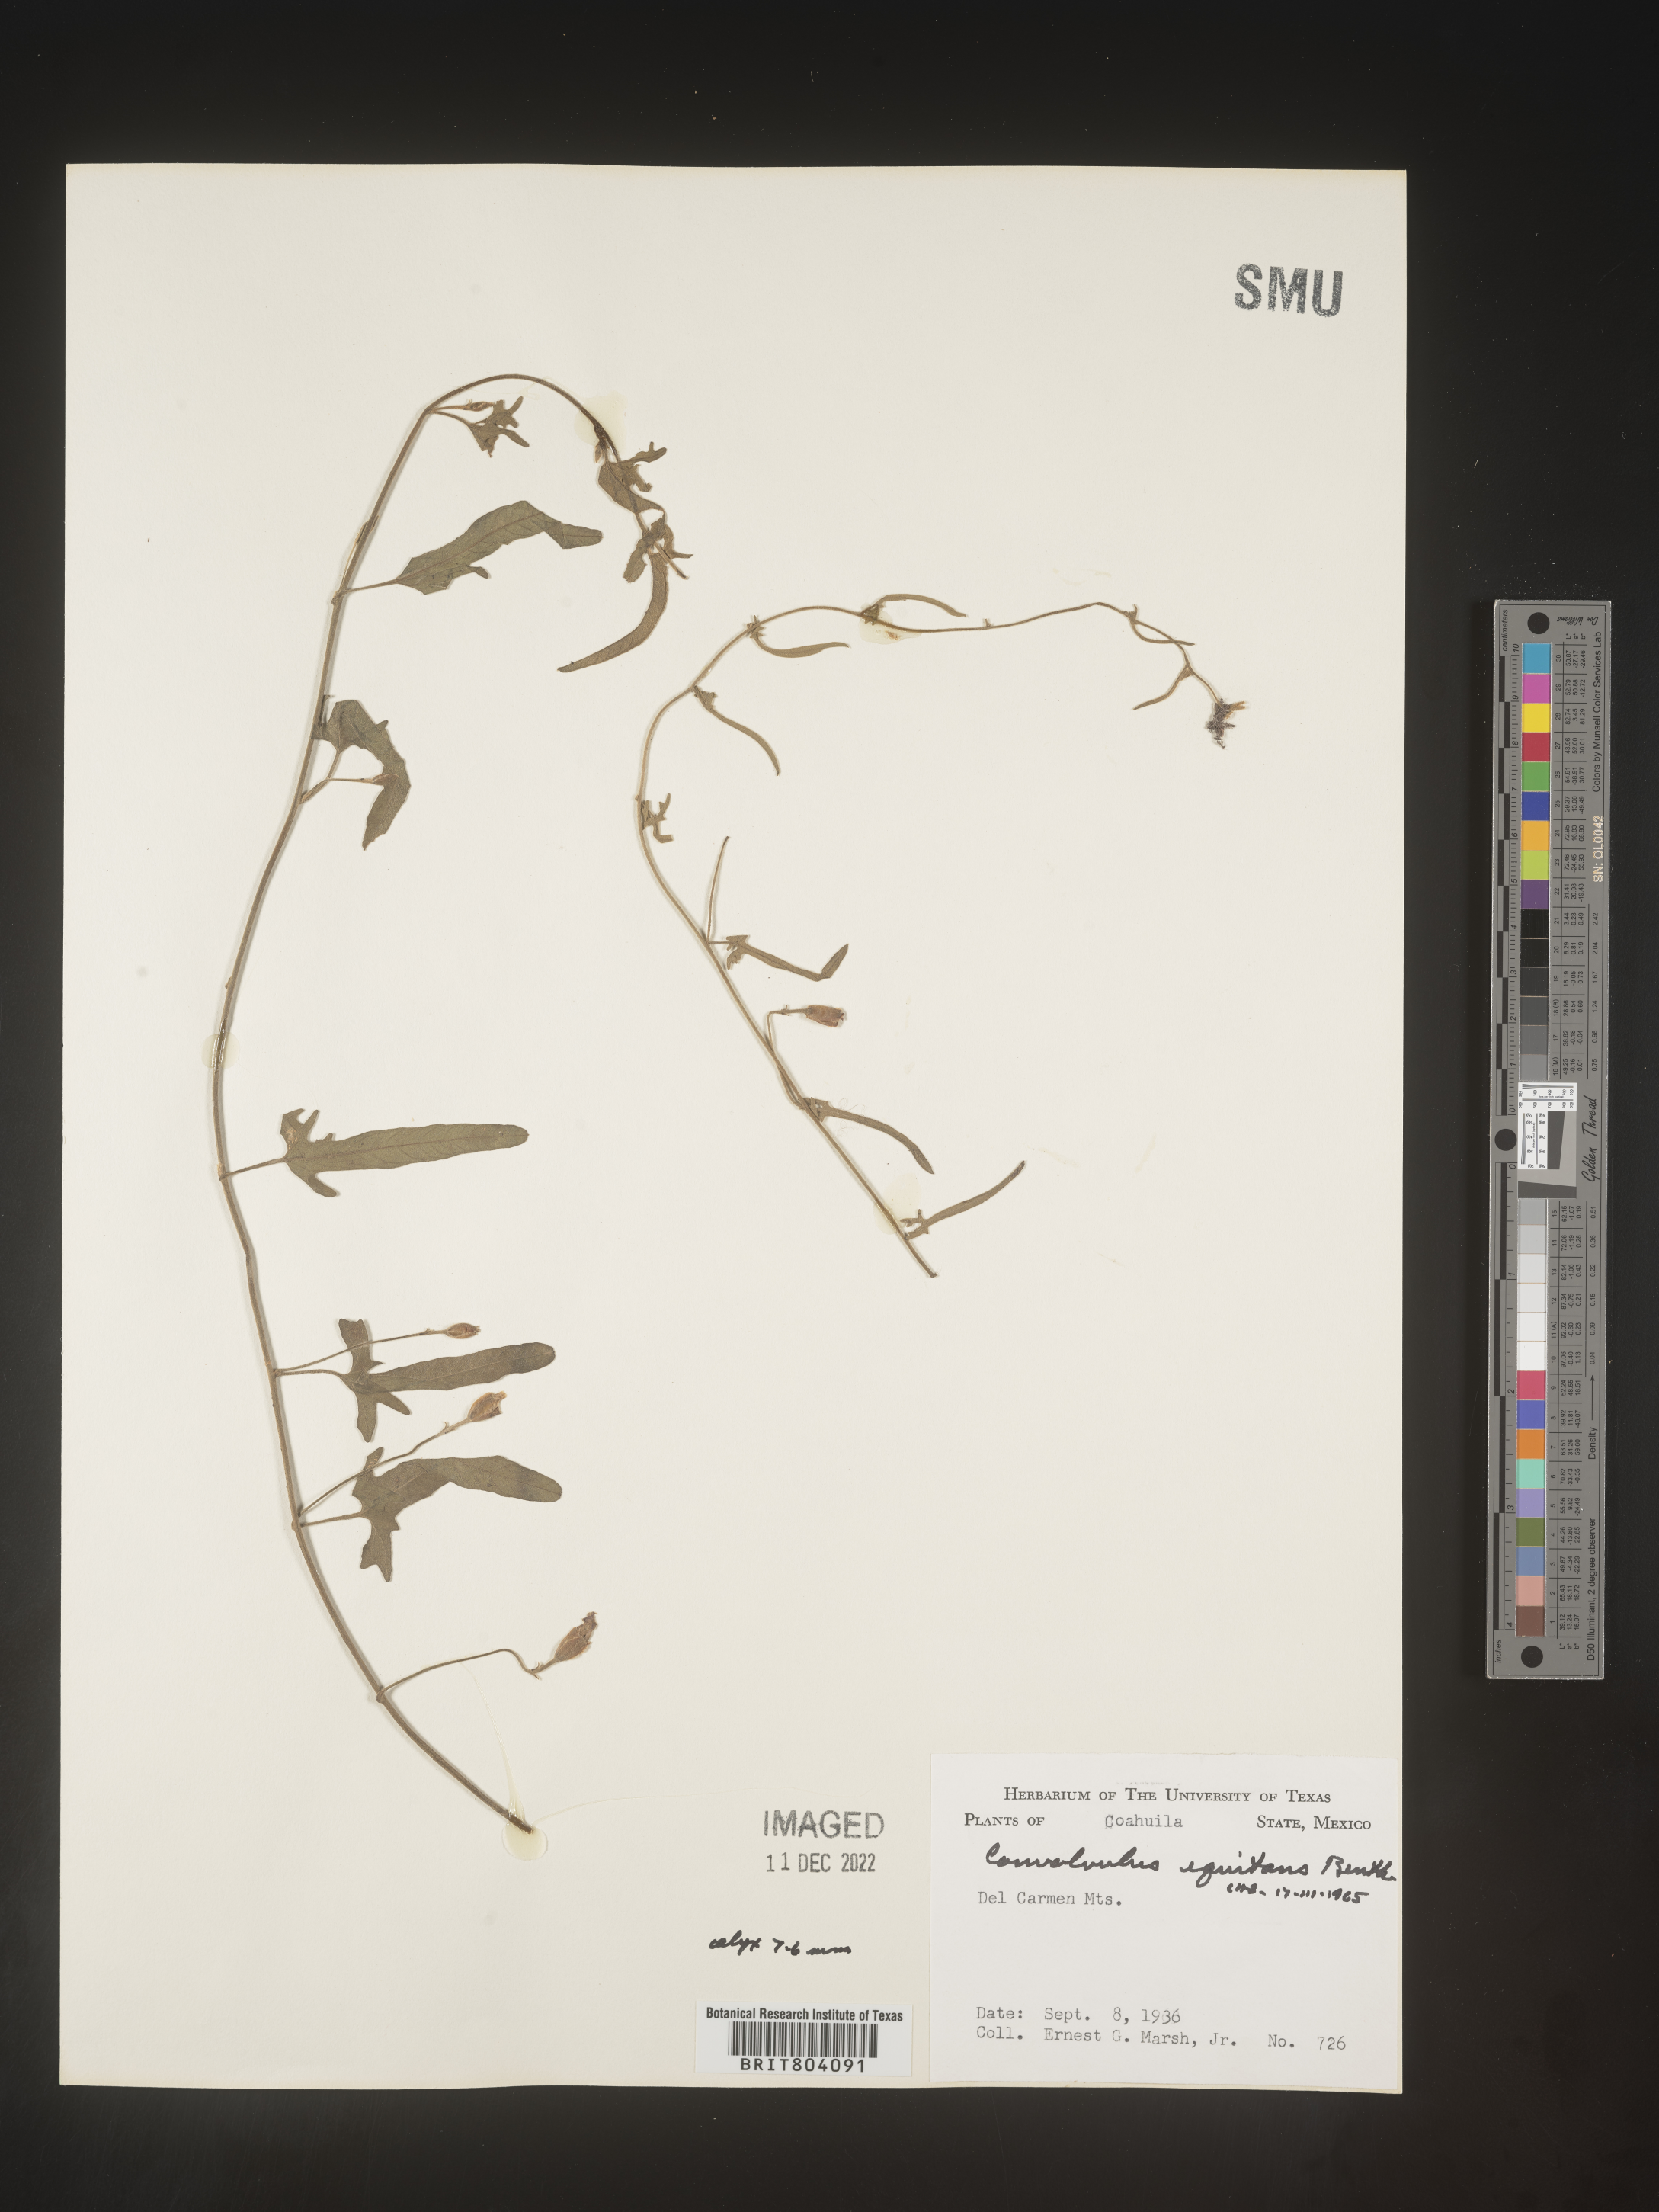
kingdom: Plantae
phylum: Tracheophyta
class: Magnoliopsida
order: Solanales
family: Convolvulaceae
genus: Convolvulus
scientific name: Convolvulus
